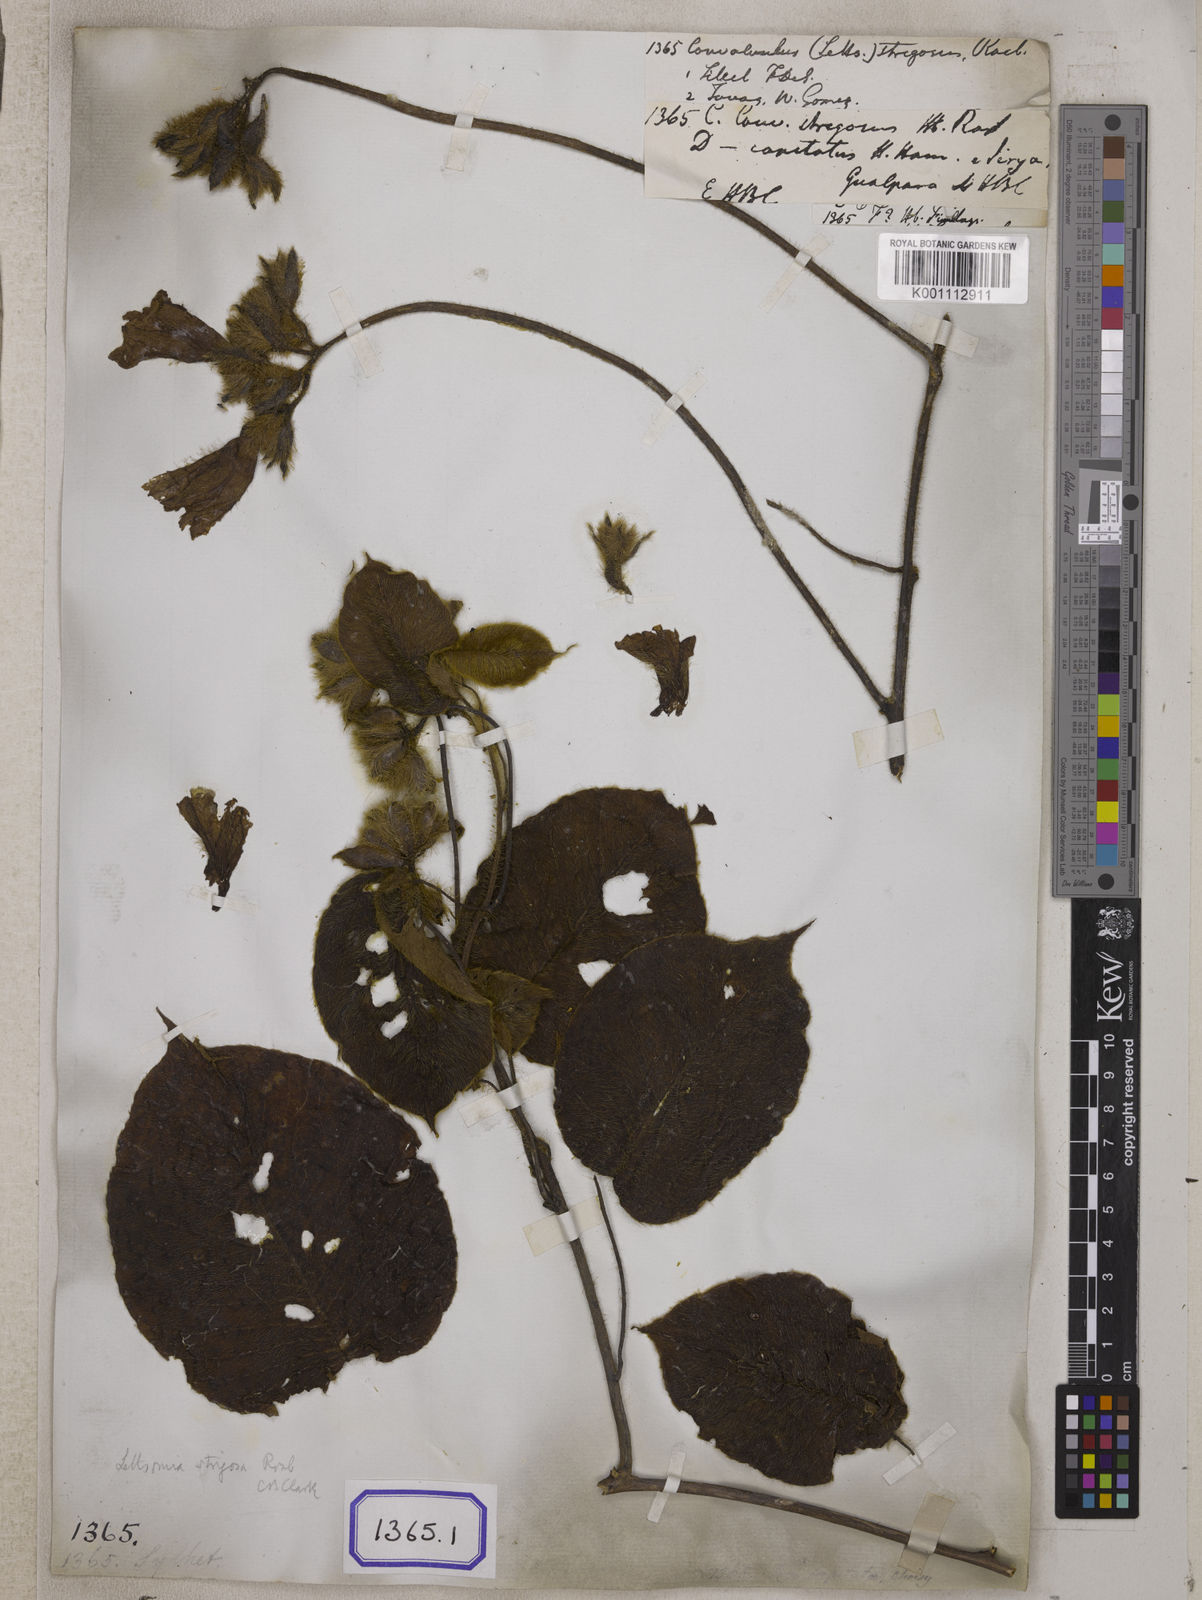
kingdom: Plantae
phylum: Tracheophyta
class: Magnoliopsida
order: Solanales
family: Convolvulaceae
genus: Convolvulus
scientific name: Convolvulus
